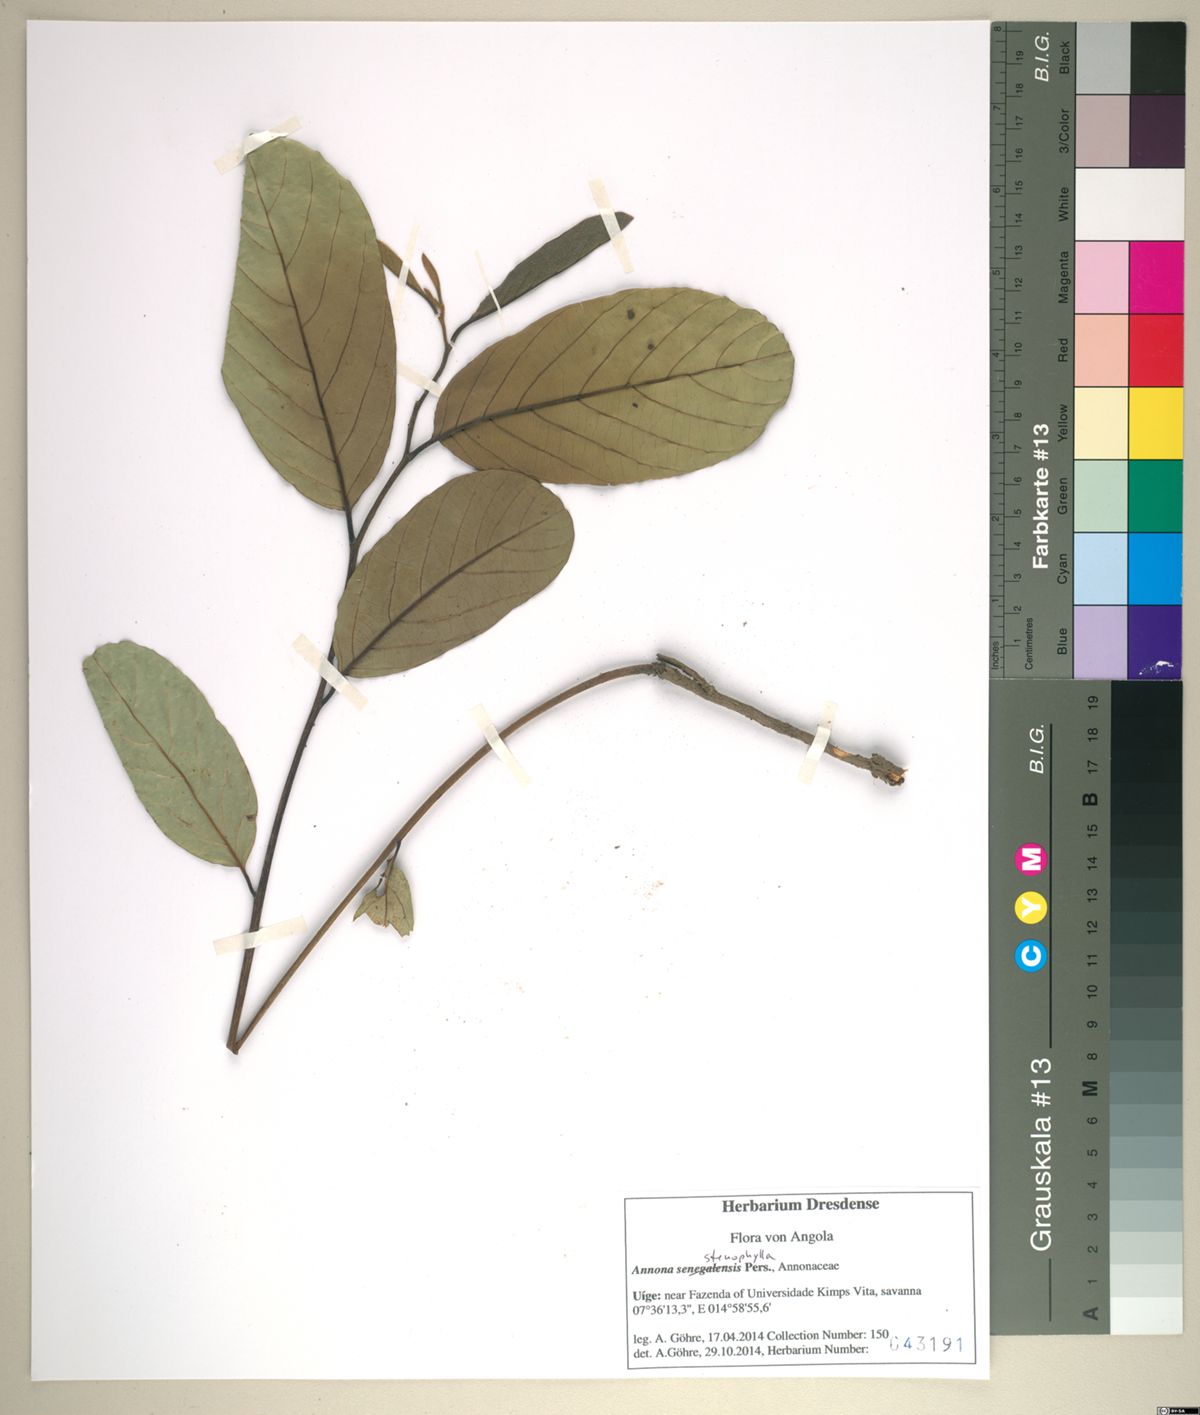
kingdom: Plantae
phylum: Tracheophyta
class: Magnoliopsida
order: Magnoliales
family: Annonaceae
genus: Annona
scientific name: Annona stenophylla
